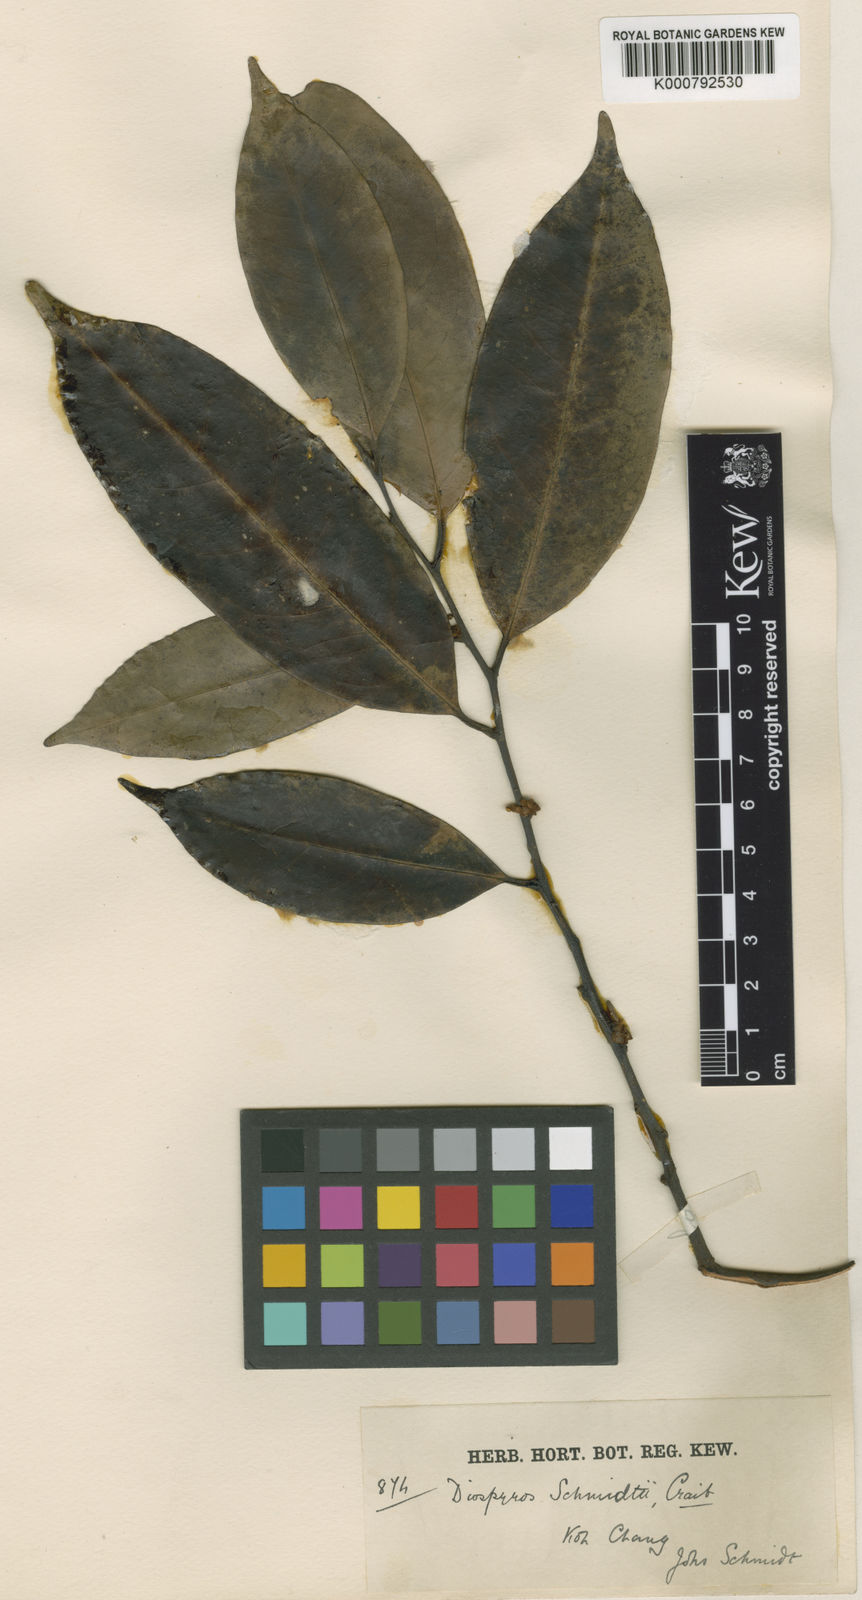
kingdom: Plantae
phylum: Tracheophyta
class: Magnoliopsida
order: Ericales
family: Ebenaceae
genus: Diospyros
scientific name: Diospyros schmidtii
